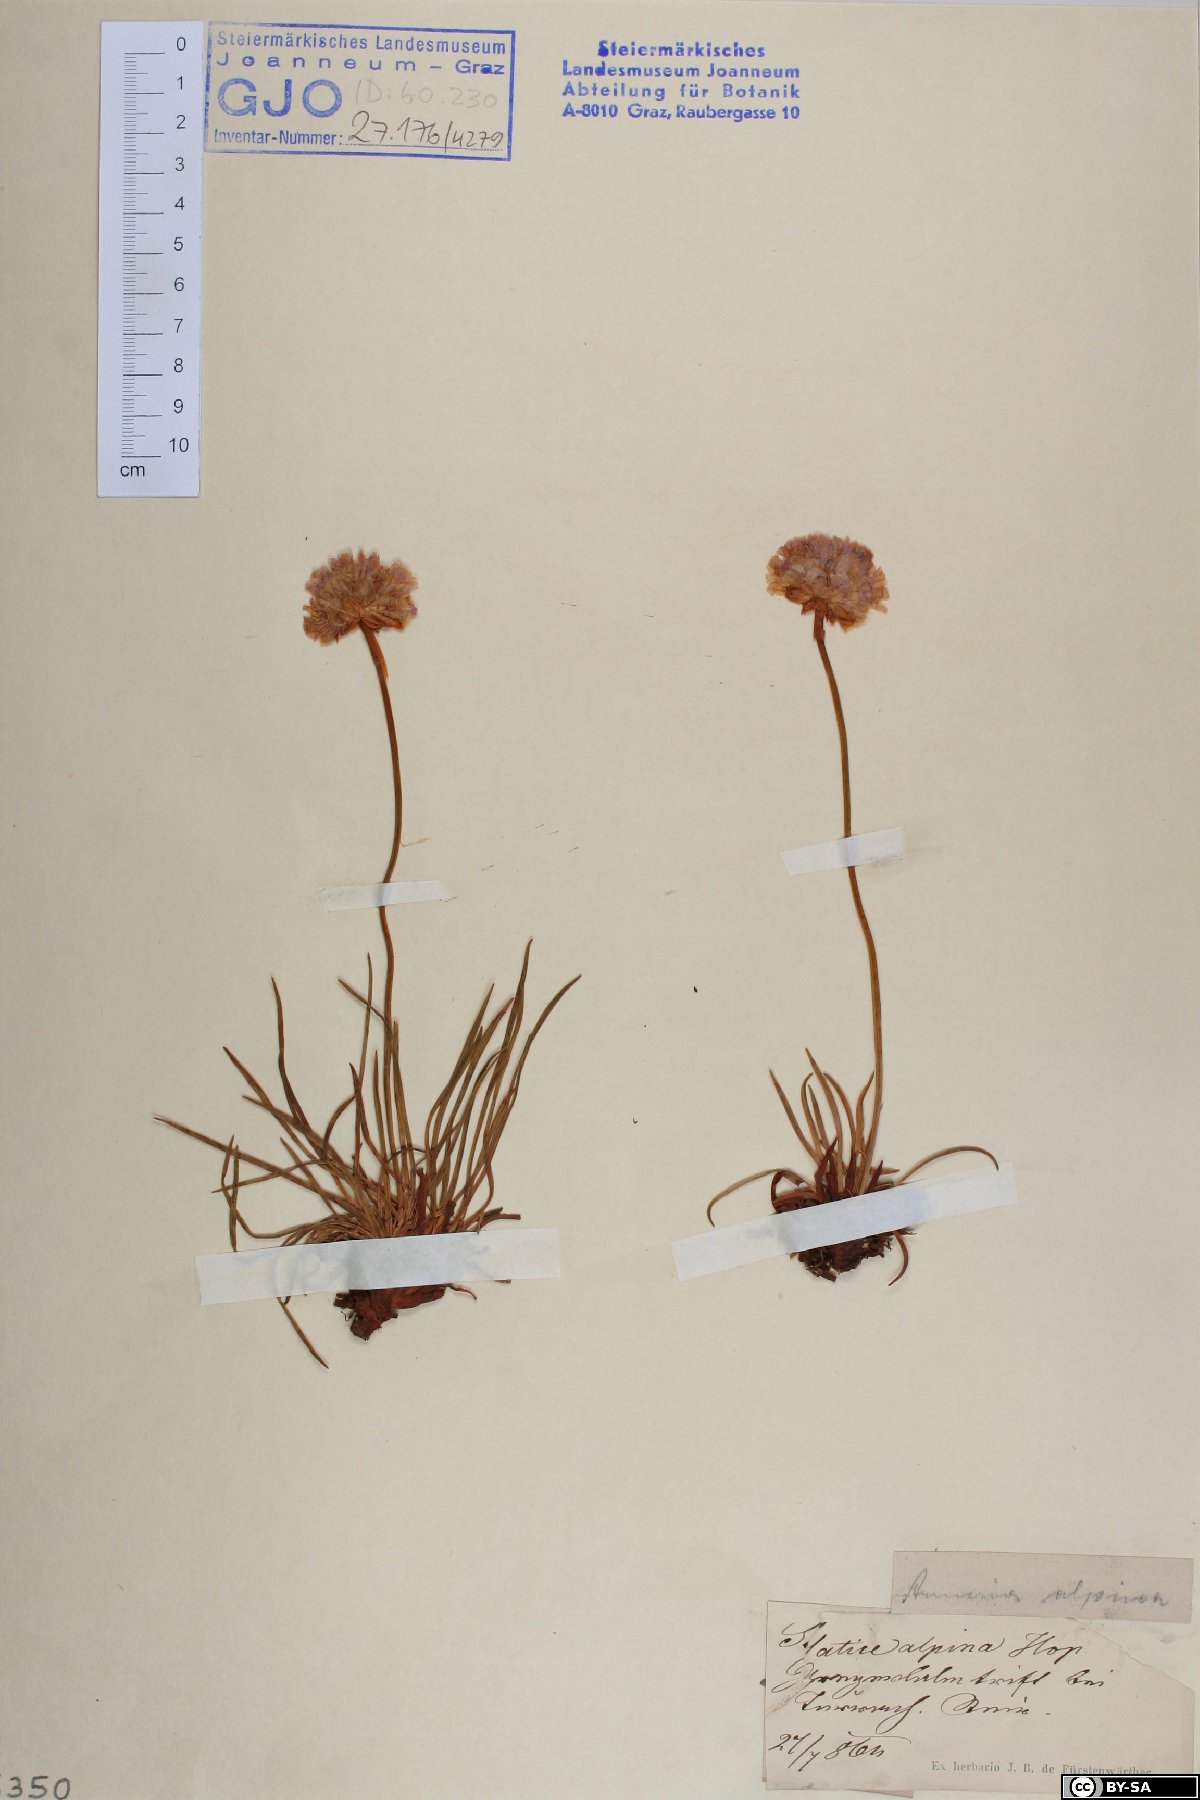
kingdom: Plantae
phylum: Tracheophyta
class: Magnoliopsida
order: Caryophyllales
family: Plumbaginaceae
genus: Armeria
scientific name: Armeria alpina
